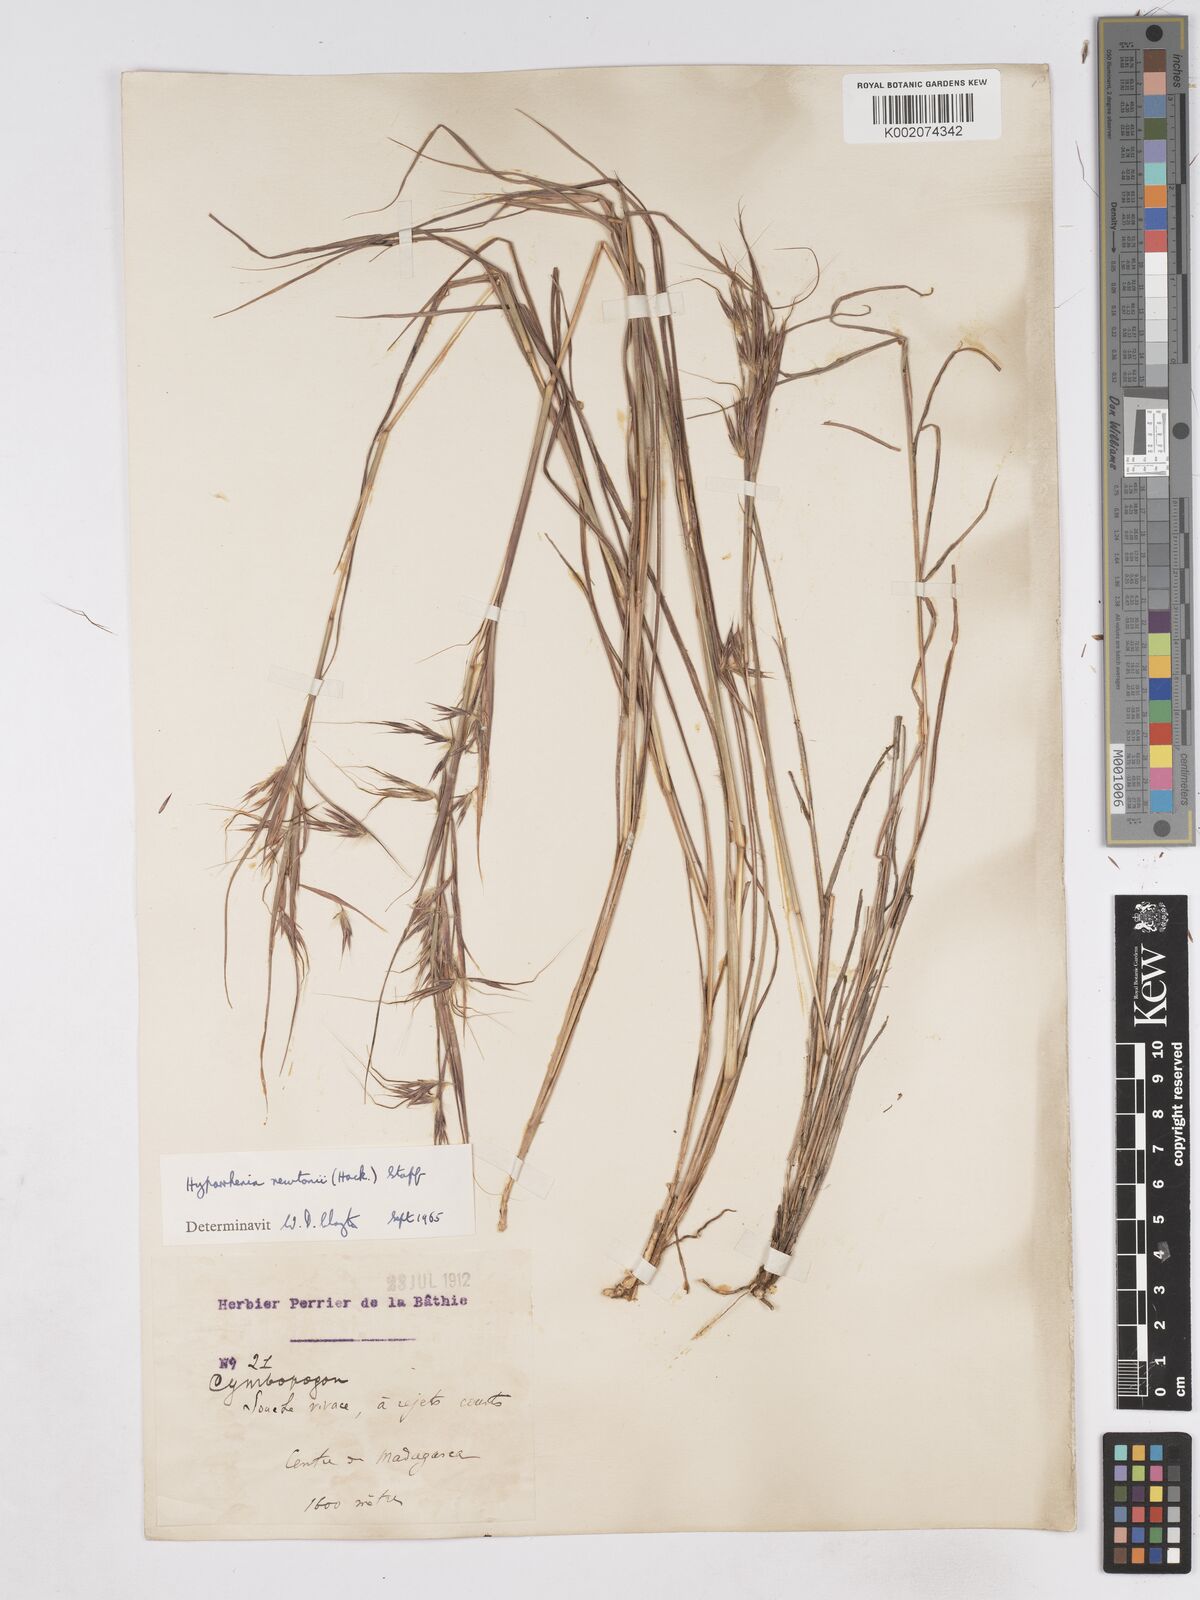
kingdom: Plantae
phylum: Tracheophyta
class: Liliopsida
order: Poales
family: Poaceae
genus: Hyparrhenia
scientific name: Hyparrhenia newtonii
